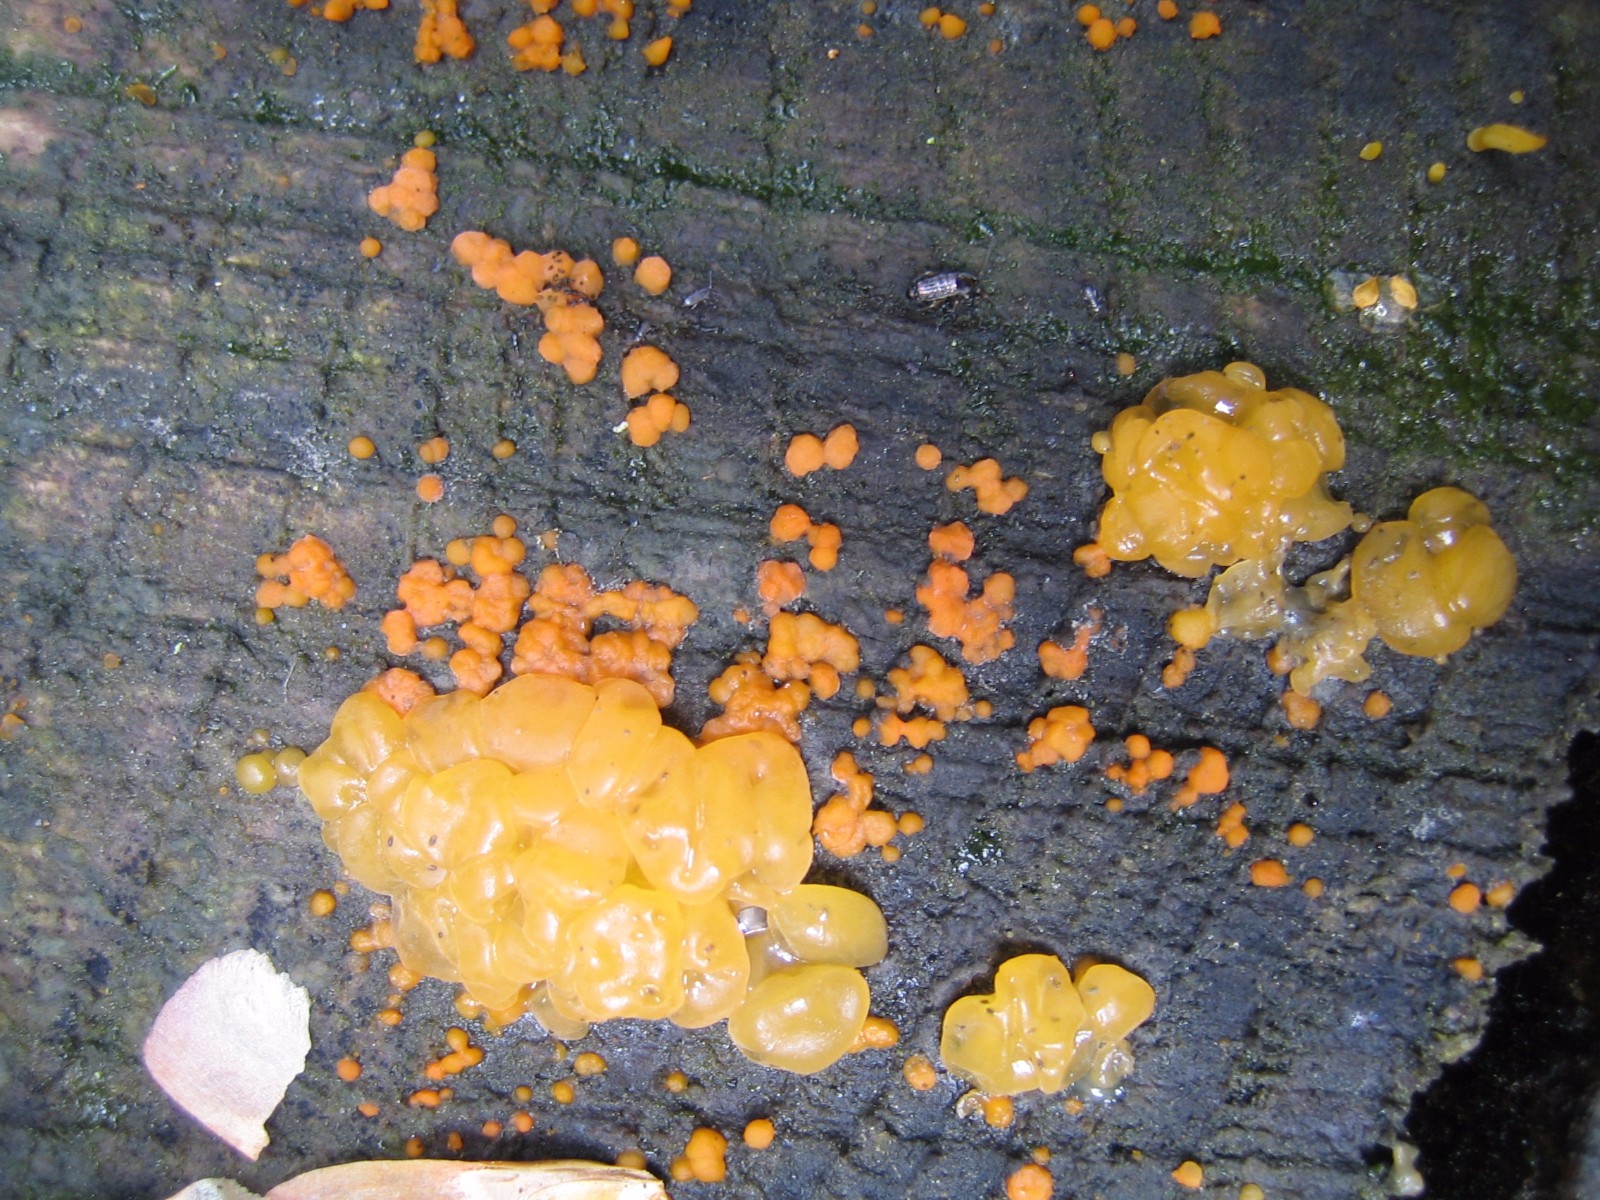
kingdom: Fungi
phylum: Basidiomycota
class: Dacrymycetes
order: Dacrymycetales
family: Dacrymycetaceae
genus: Dacrymyces
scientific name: Dacrymyces stillatus
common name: almindelig tåresvamp
